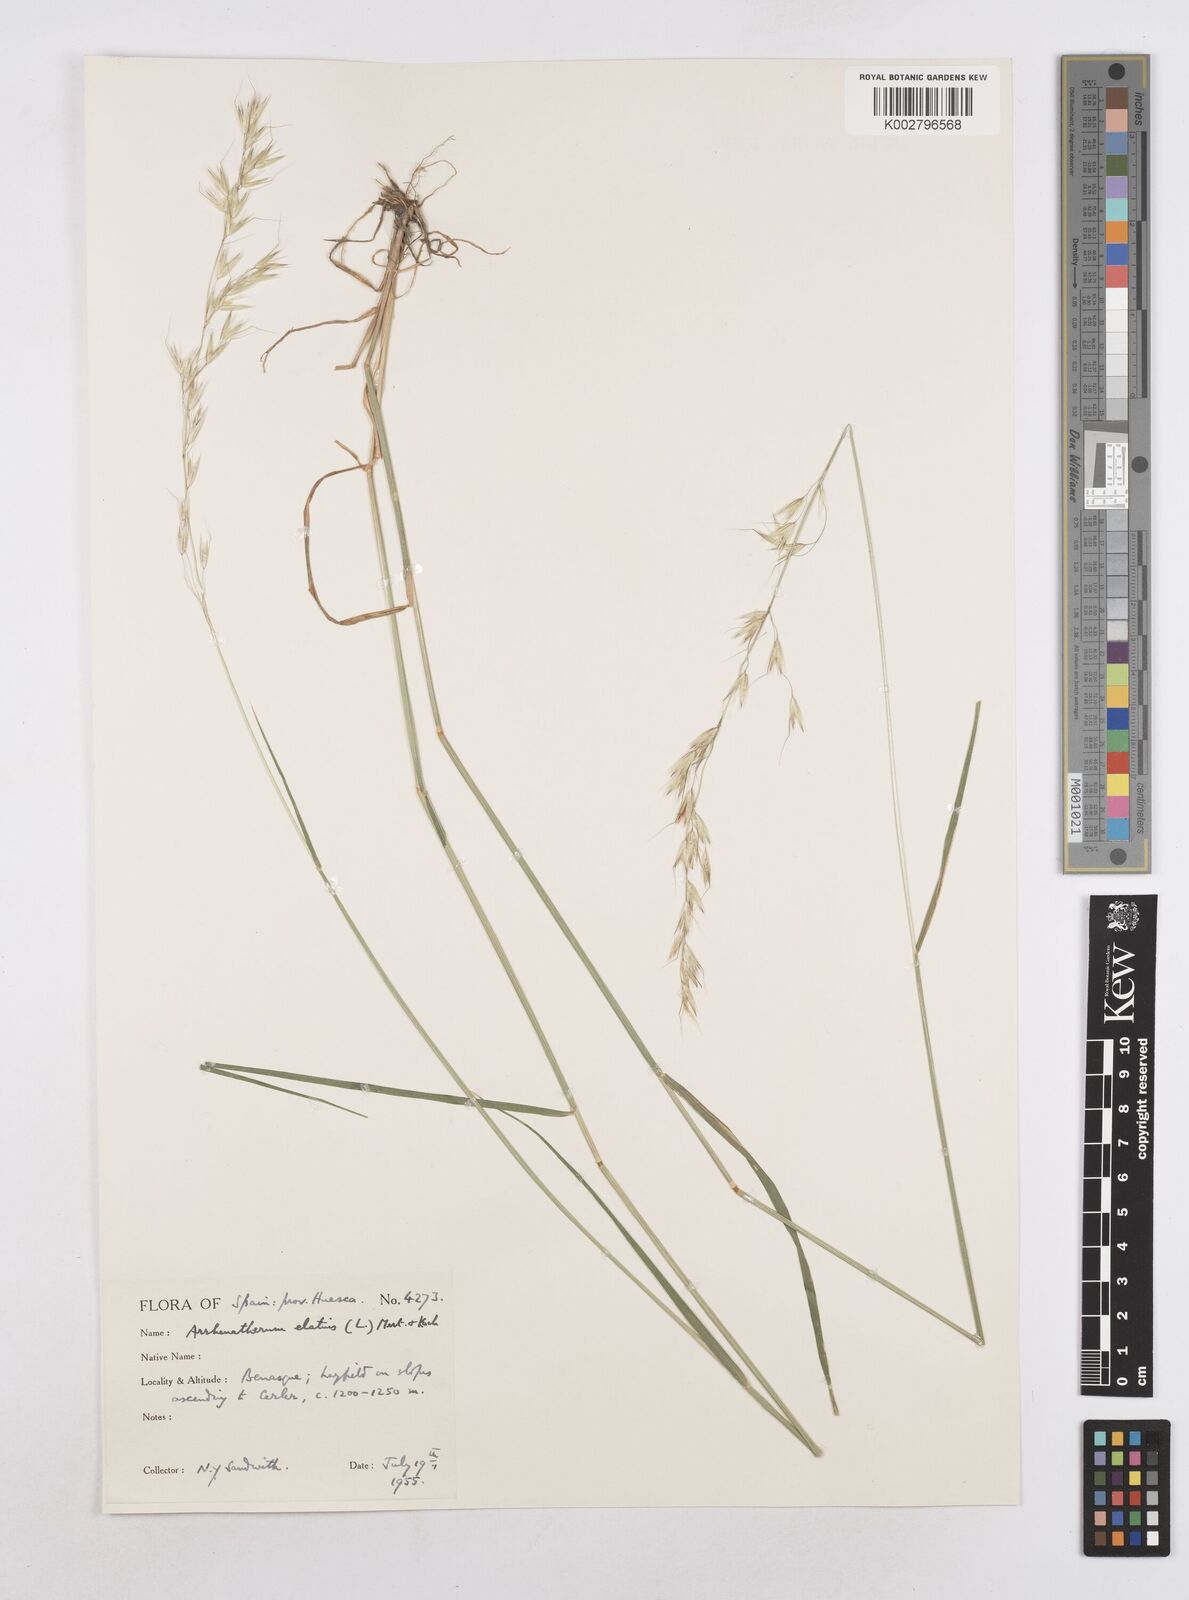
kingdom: Plantae
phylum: Tracheophyta
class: Liliopsida
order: Poales
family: Poaceae
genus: Arrhenatherum
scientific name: Arrhenatherum elatius
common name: Tall oatgrass
